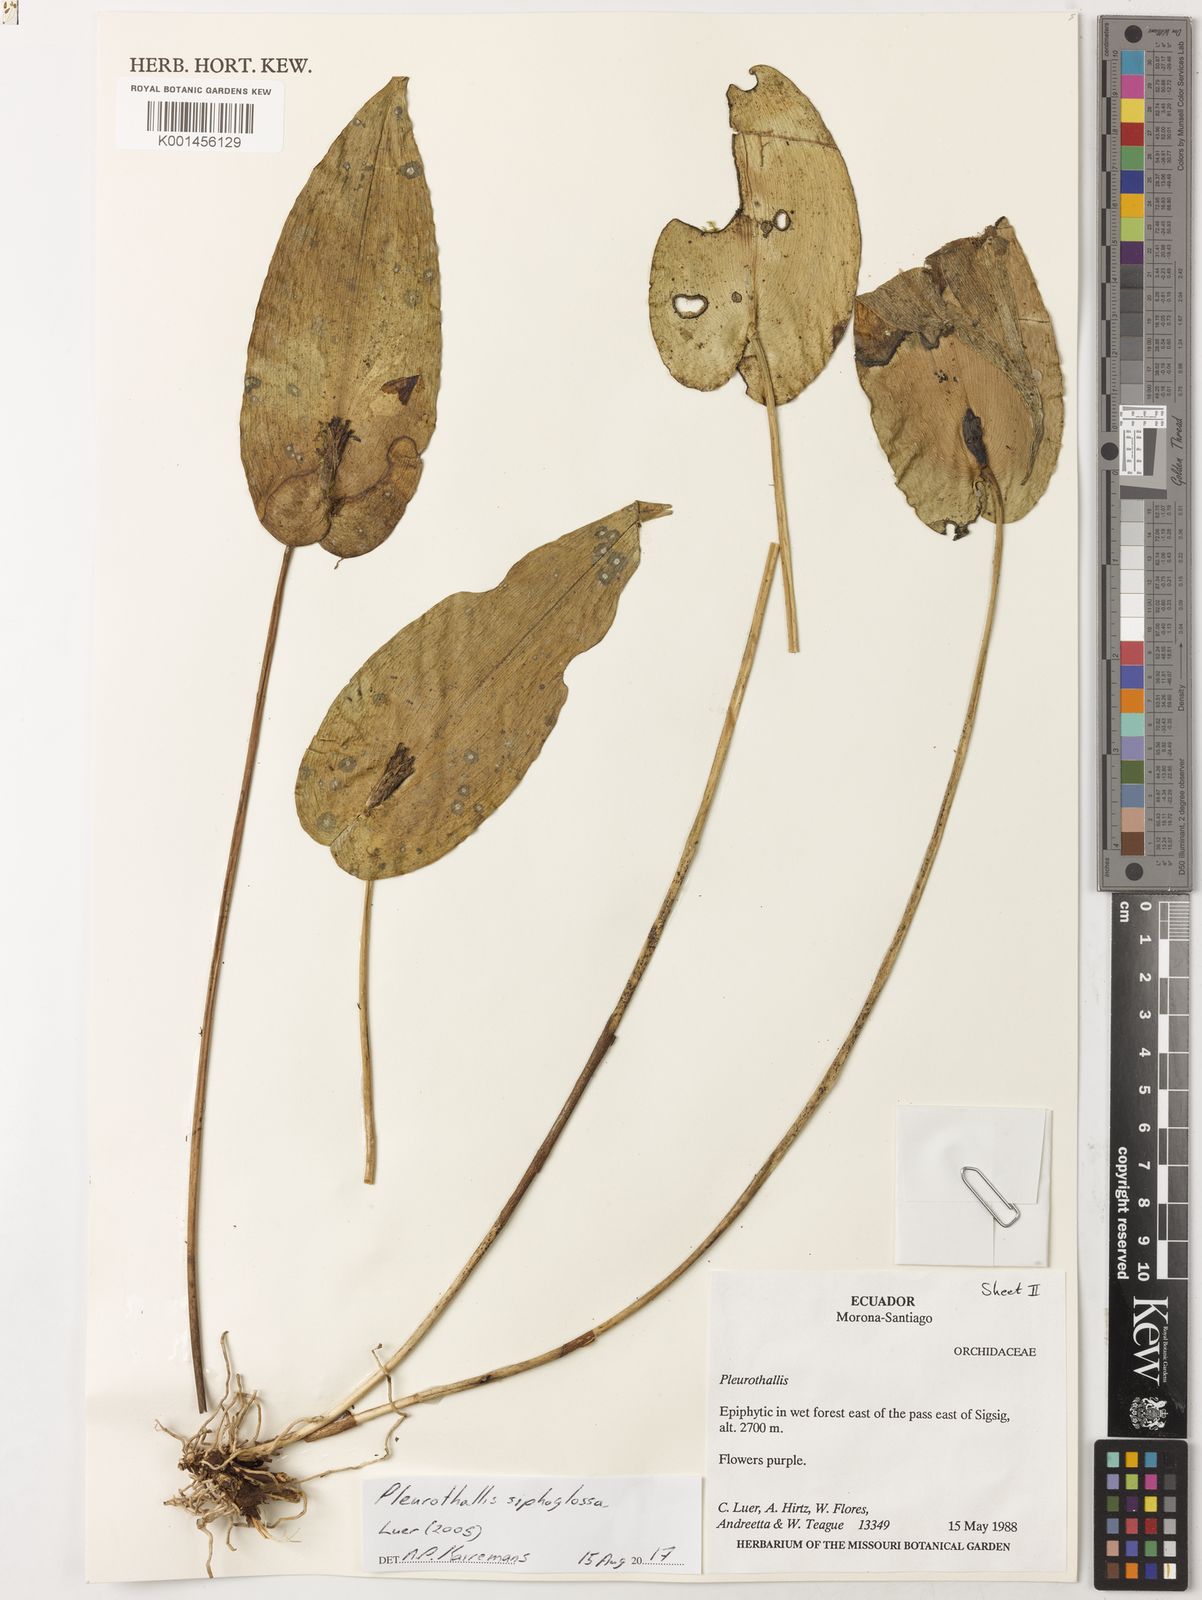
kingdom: Plantae
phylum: Tracheophyta
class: Liliopsida
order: Asparagales
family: Orchidaceae
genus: Stelis
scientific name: Stelis siphonantha
